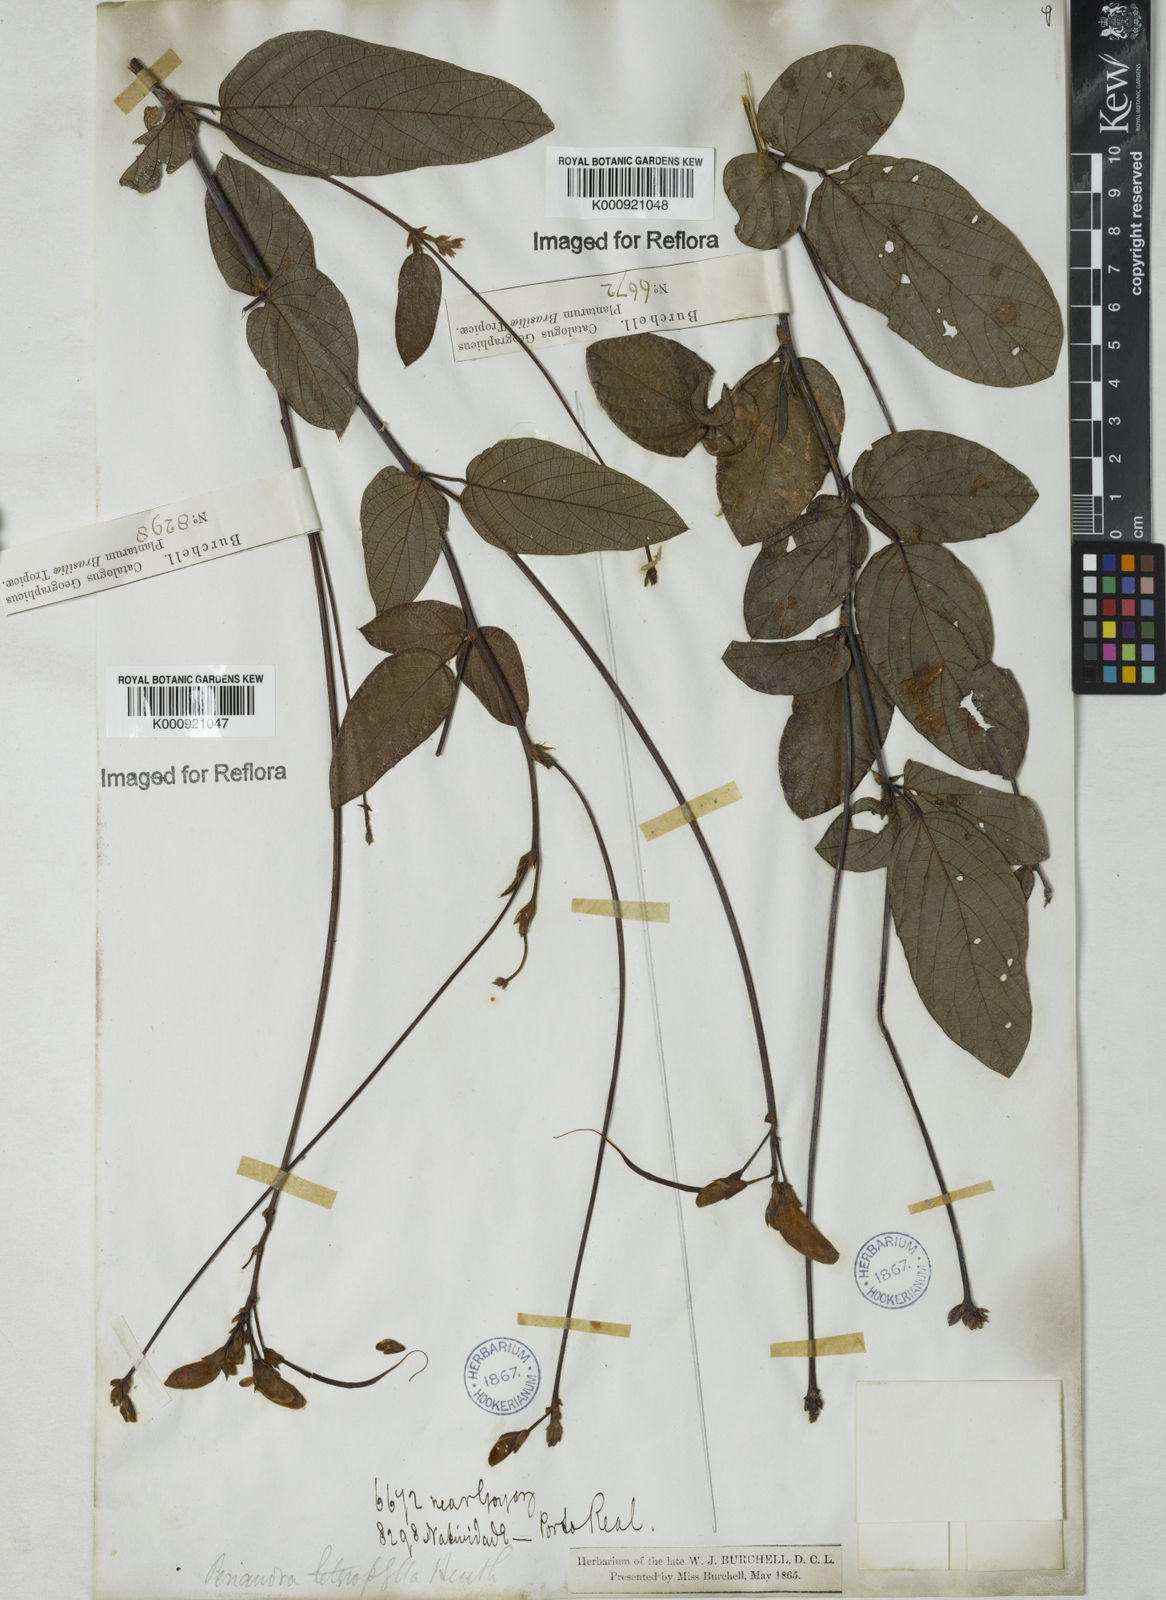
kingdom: Plantae
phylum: Tracheophyta
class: Magnoliopsida
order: Fabales
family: Fabaceae
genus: Periandra
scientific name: Periandra heterophylla
